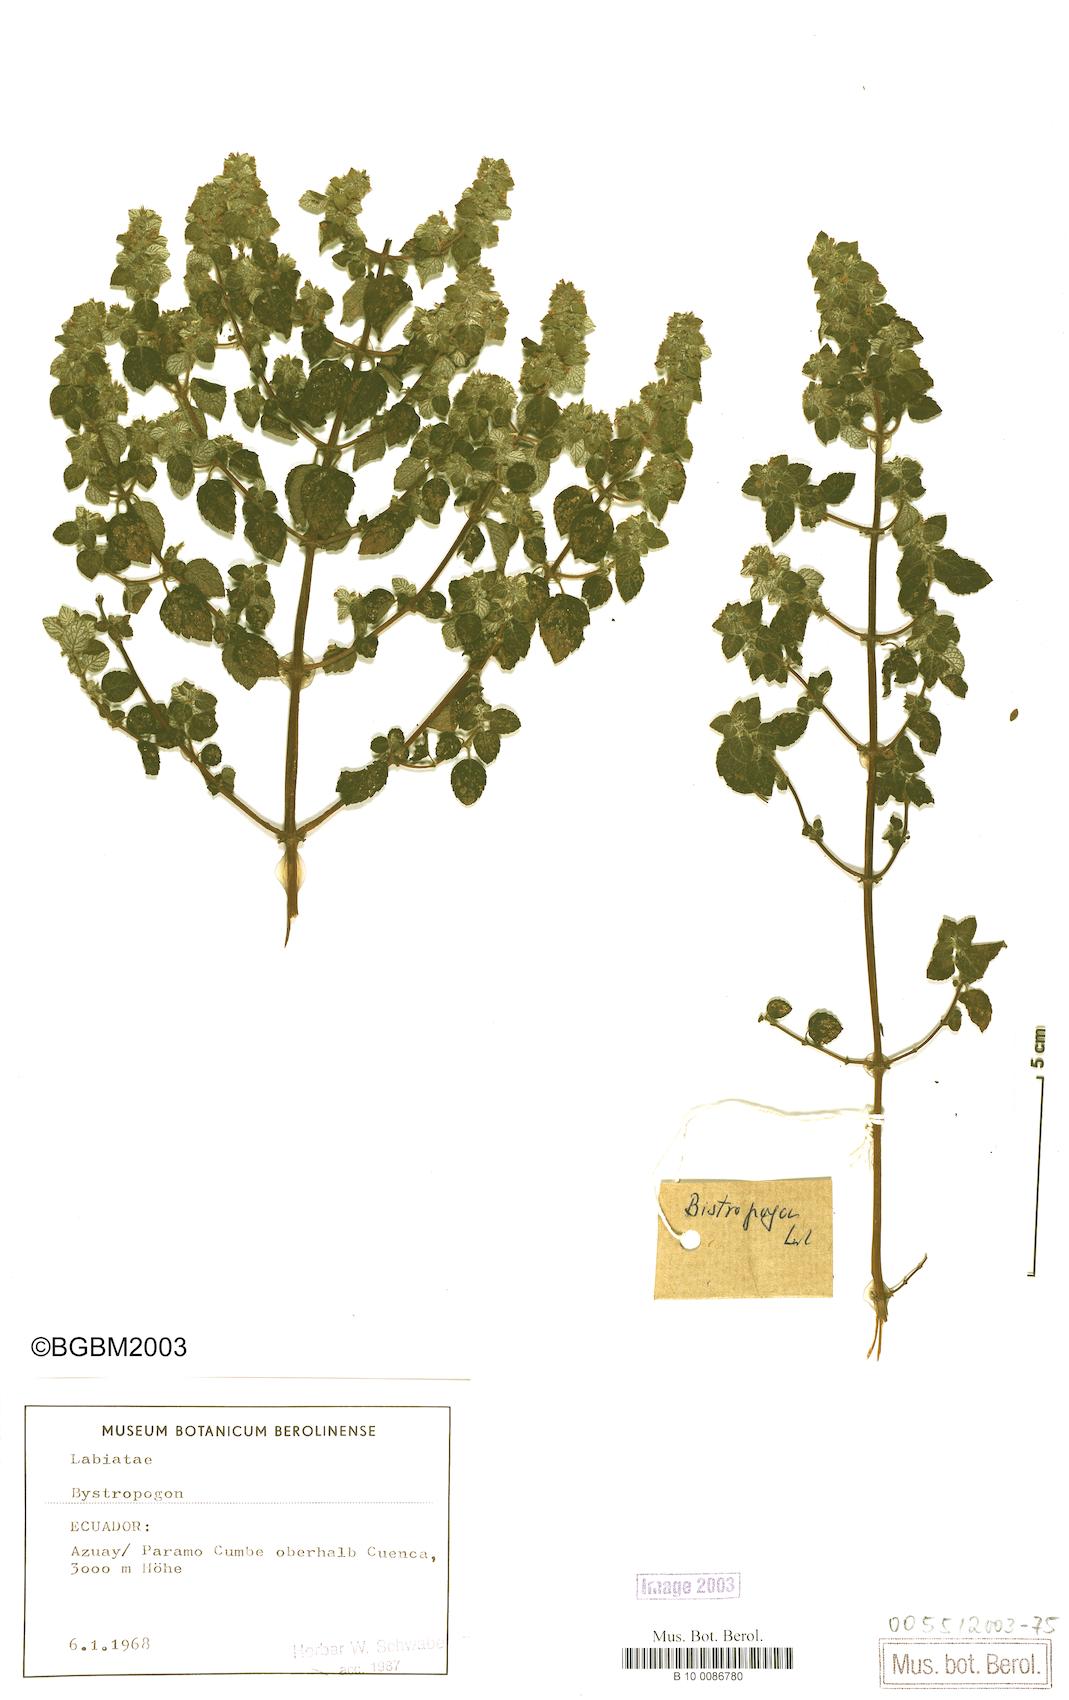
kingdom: Plantae
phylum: Tracheophyta
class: Magnoliopsida
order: Lamiales
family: Lamiaceae
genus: Bystropogon
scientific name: Bystropogon
